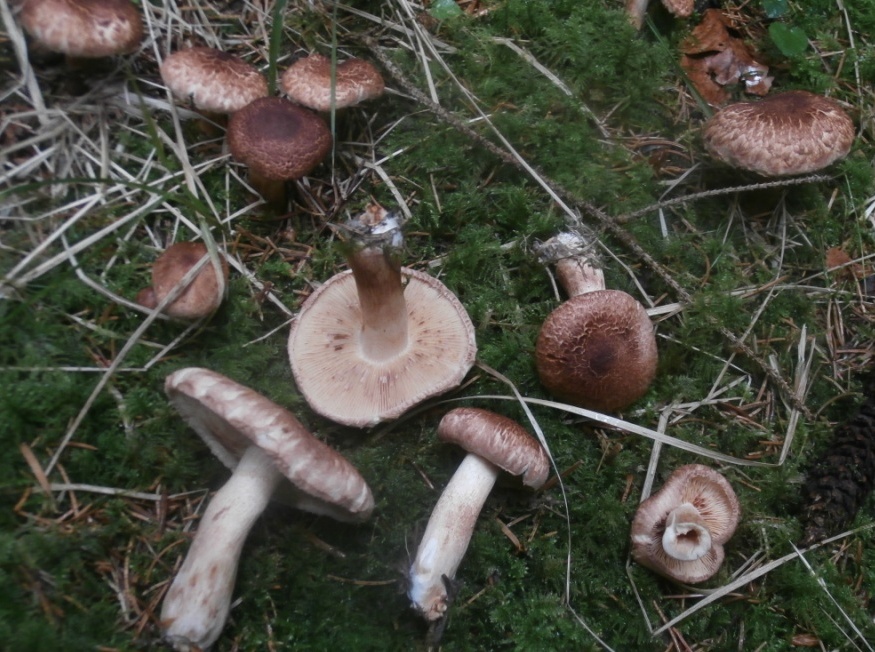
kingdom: Fungi
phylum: Basidiomycota
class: Agaricomycetes
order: Agaricales
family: Tricholomataceae
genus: Tricholoma
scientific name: Tricholoma vaccinum
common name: ko-ridderhat
